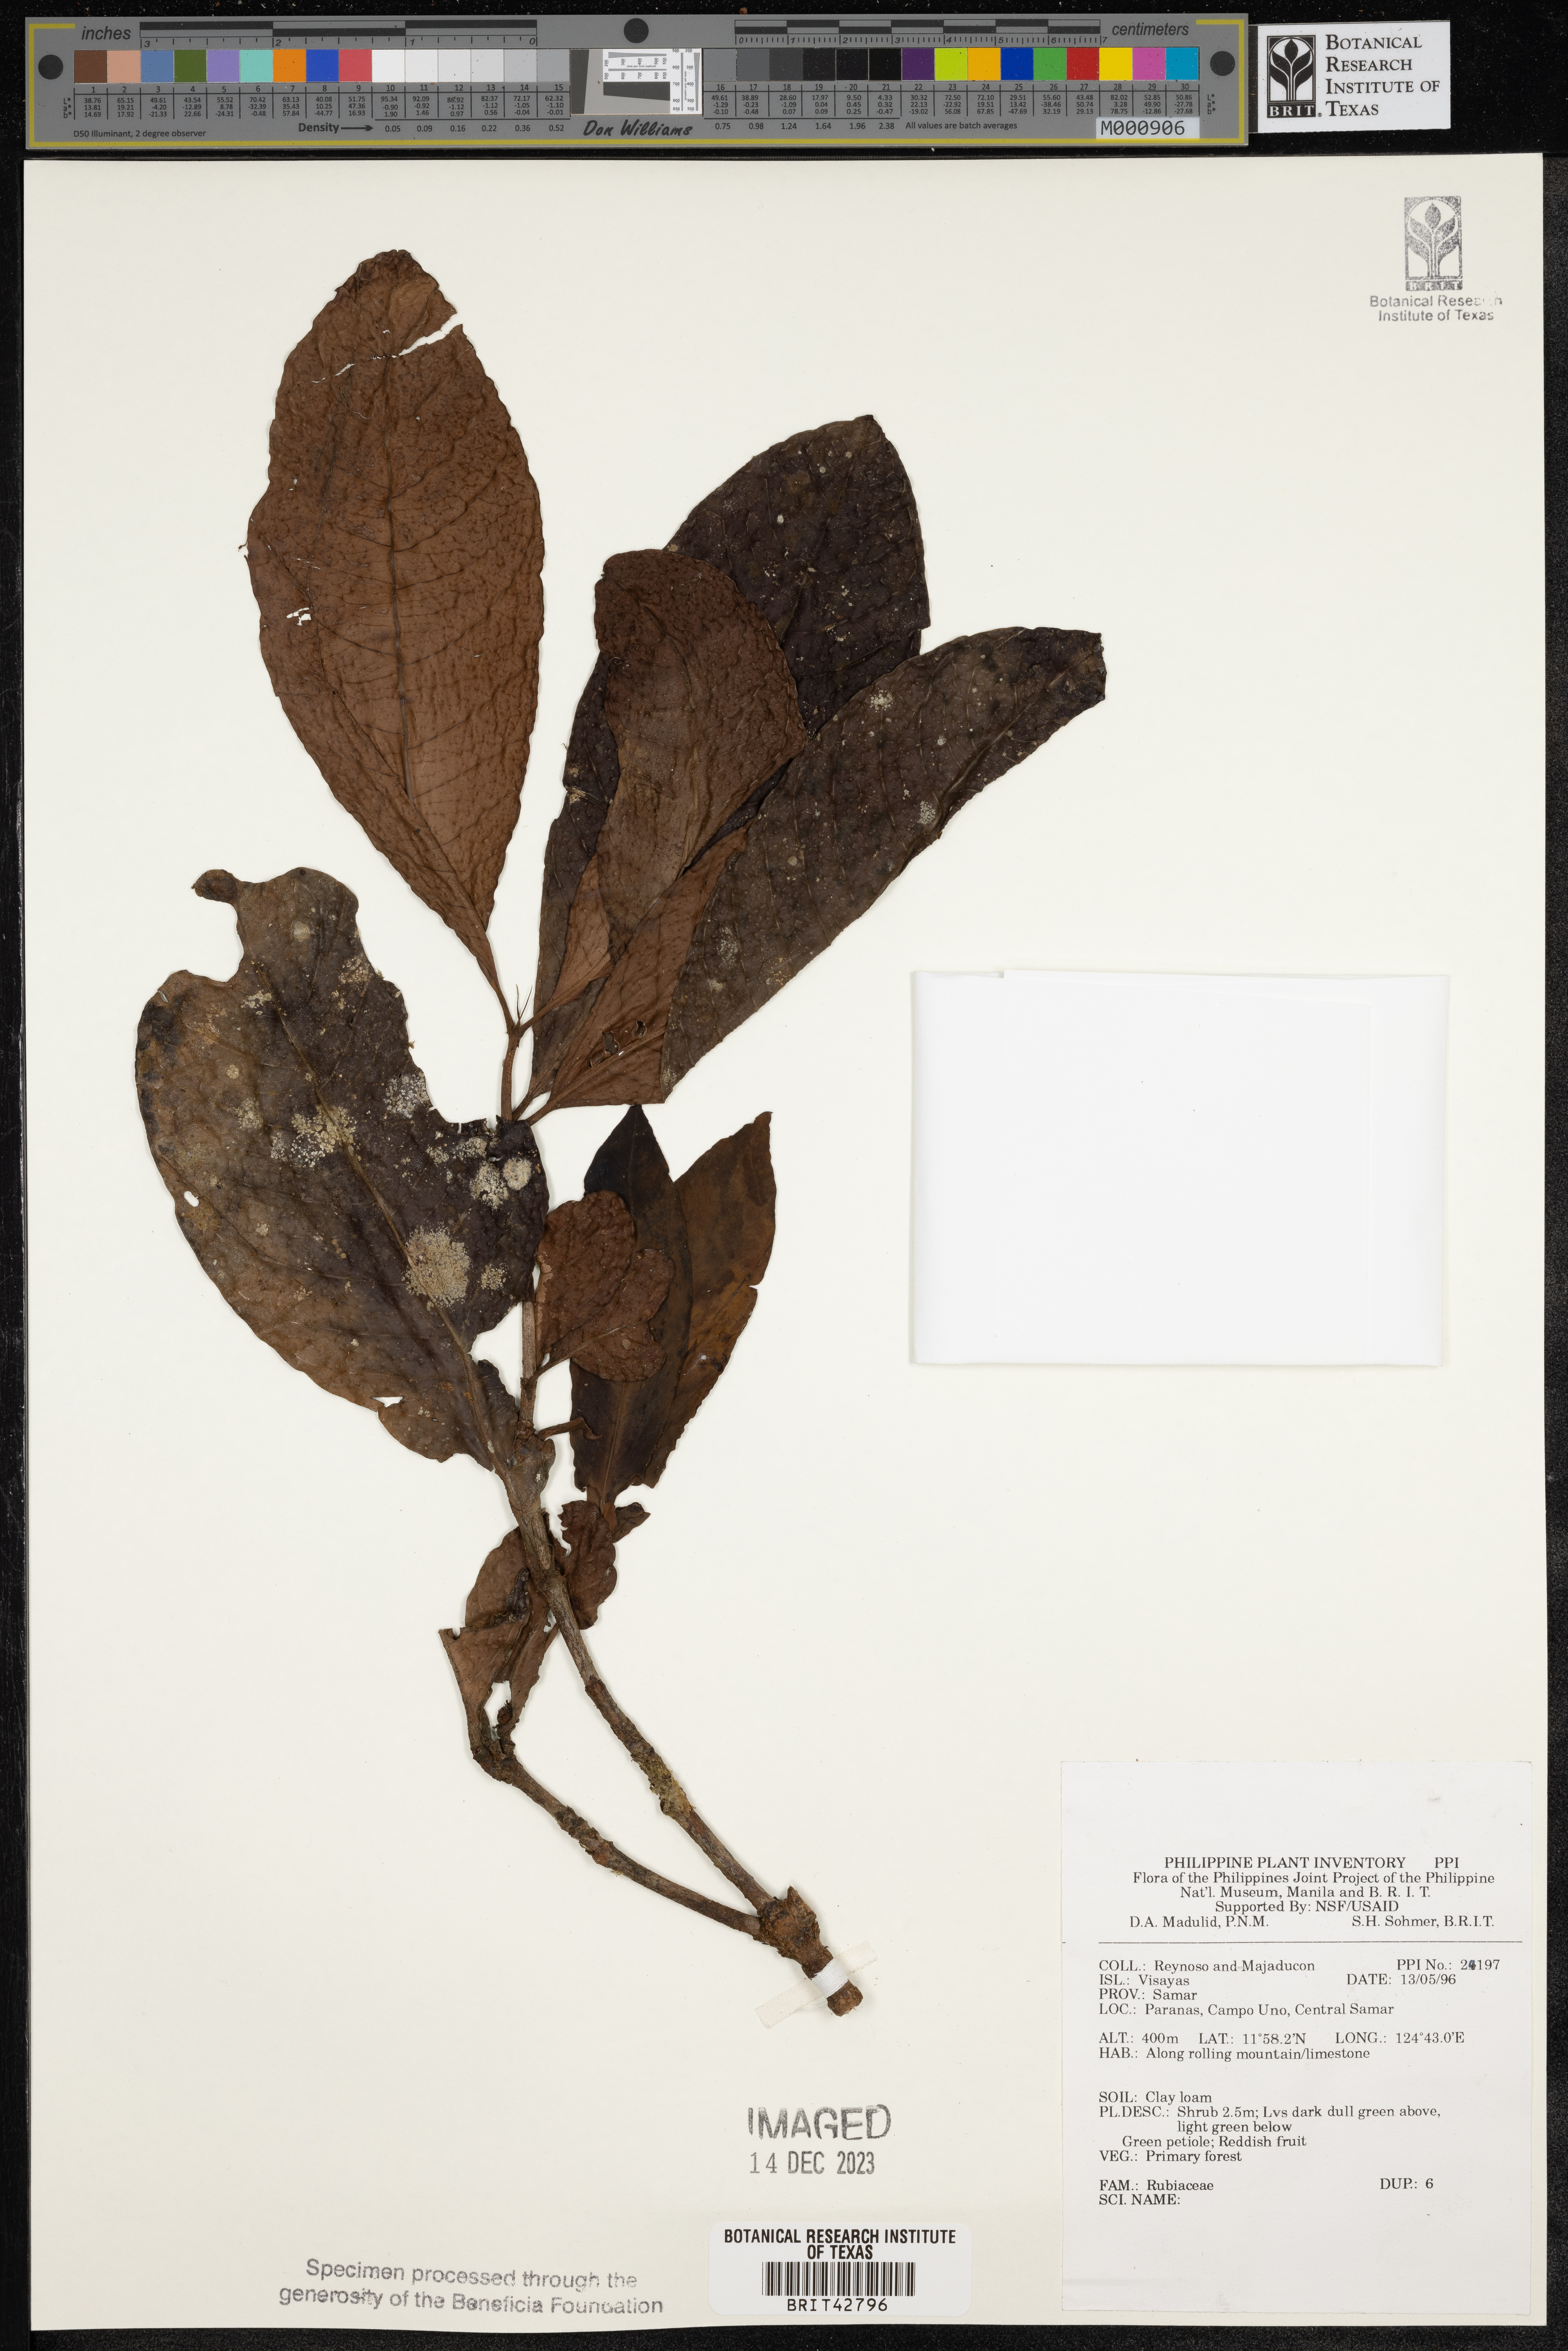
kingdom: Plantae
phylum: Tracheophyta
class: Magnoliopsida
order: Gentianales
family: Rubiaceae
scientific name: Rubiaceae
